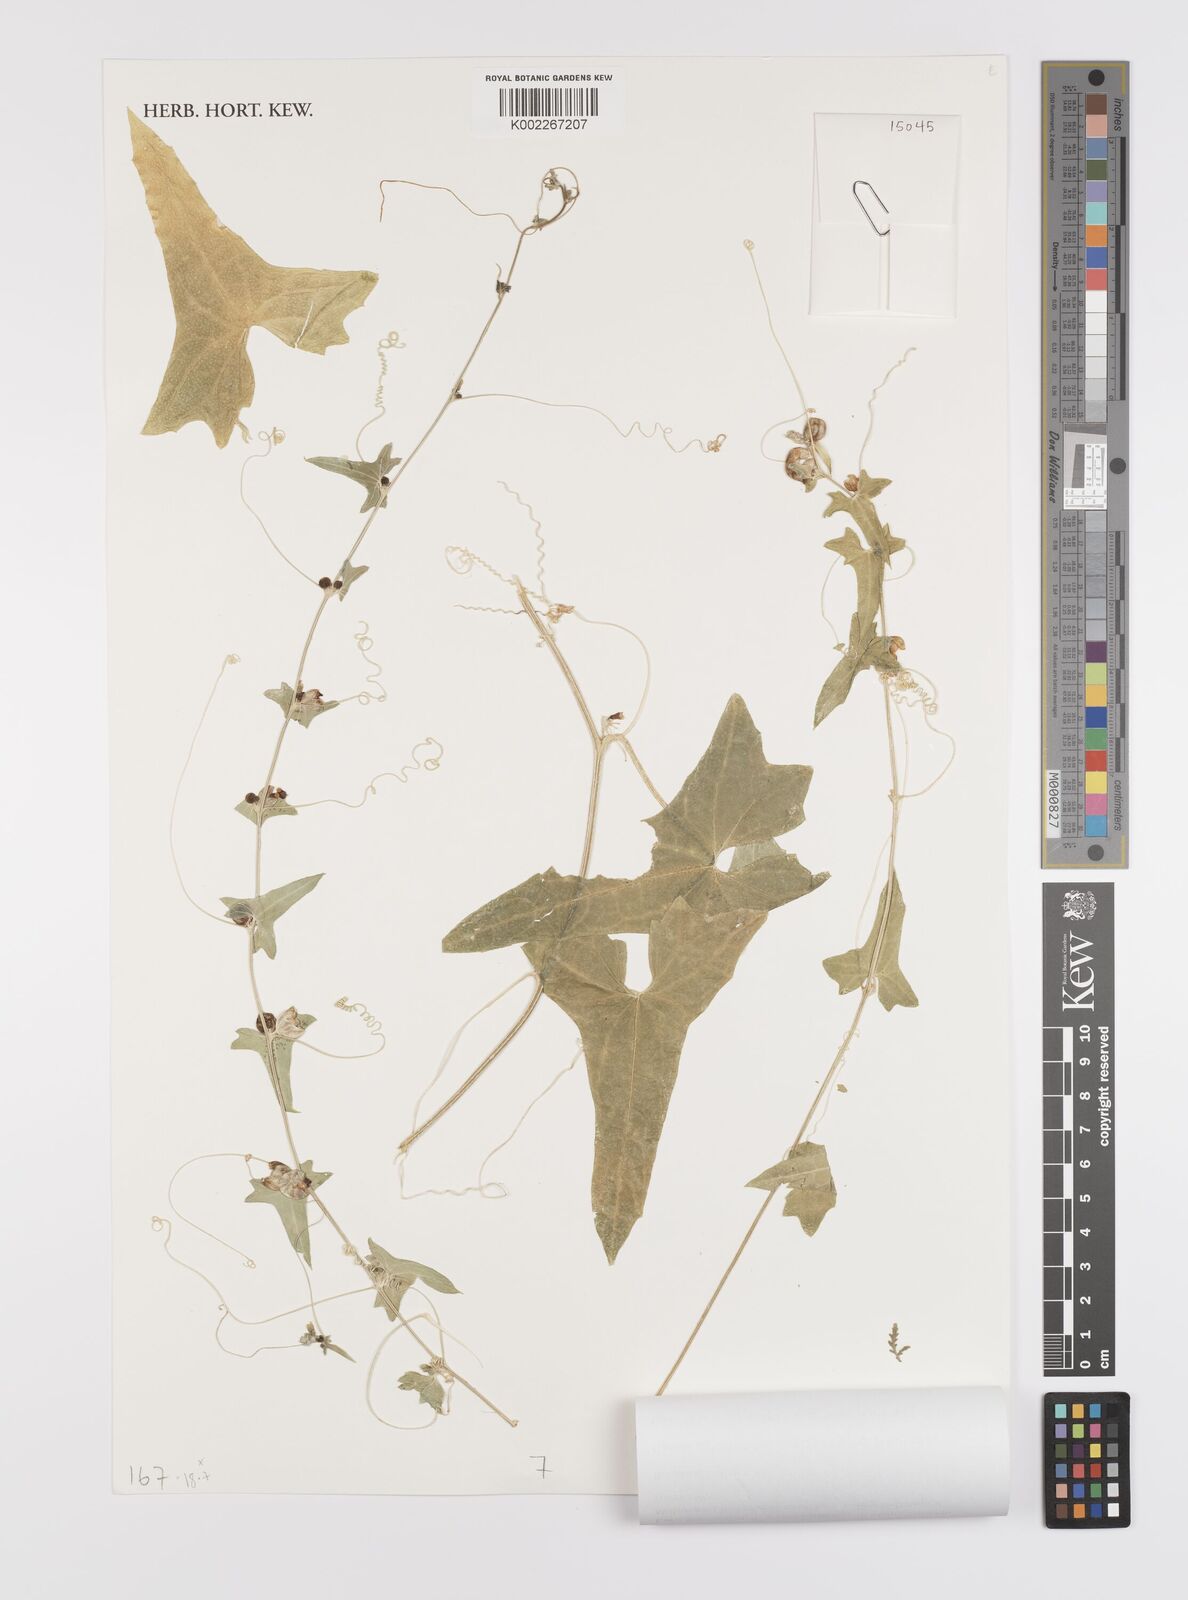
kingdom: Plantae
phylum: Tracheophyta
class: Magnoliopsida
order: Cucurbitales
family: Cucurbitaceae
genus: Cucumis
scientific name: Cucumis variabilis
